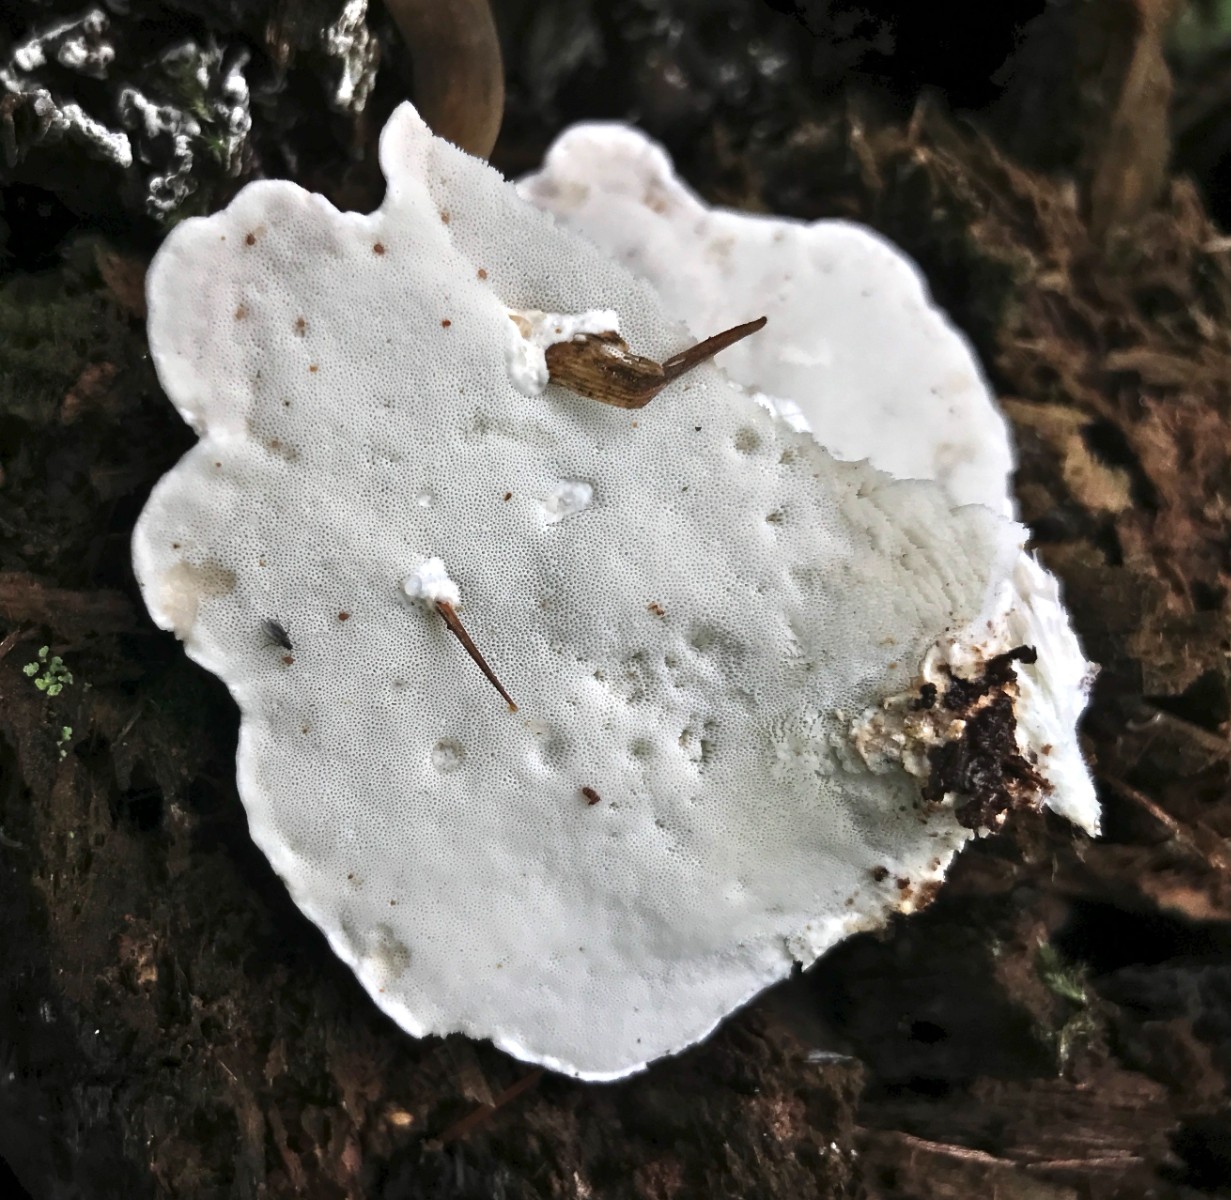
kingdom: Fungi
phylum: Basidiomycota
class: Agaricomycetes
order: Polyporales
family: Polyporaceae
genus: Cyanosporus
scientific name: Cyanosporus caesius
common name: blålig kødporesvamp
